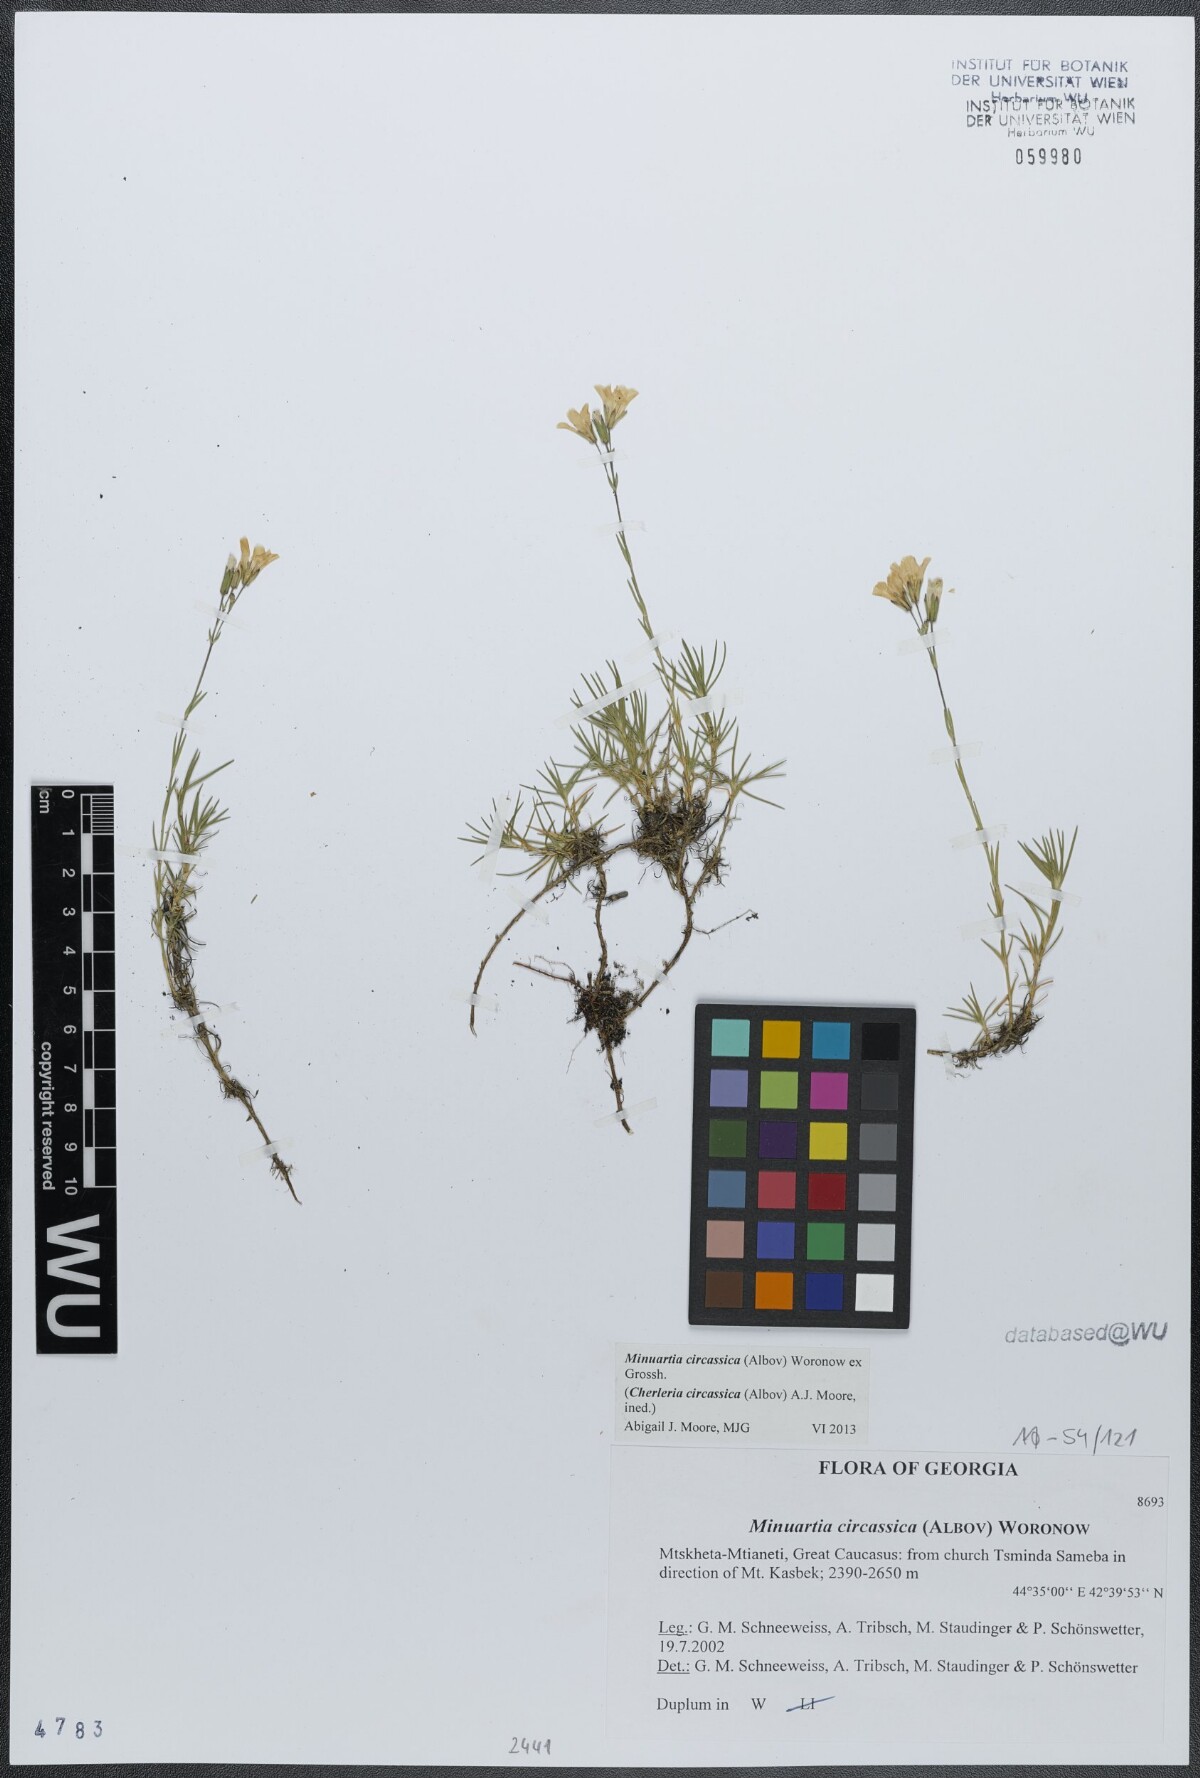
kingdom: Plantae
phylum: Tracheophyta
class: Magnoliopsida
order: Caryophyllales
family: Caryophyllaceae
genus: Cherleria
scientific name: Cherleria circassica
